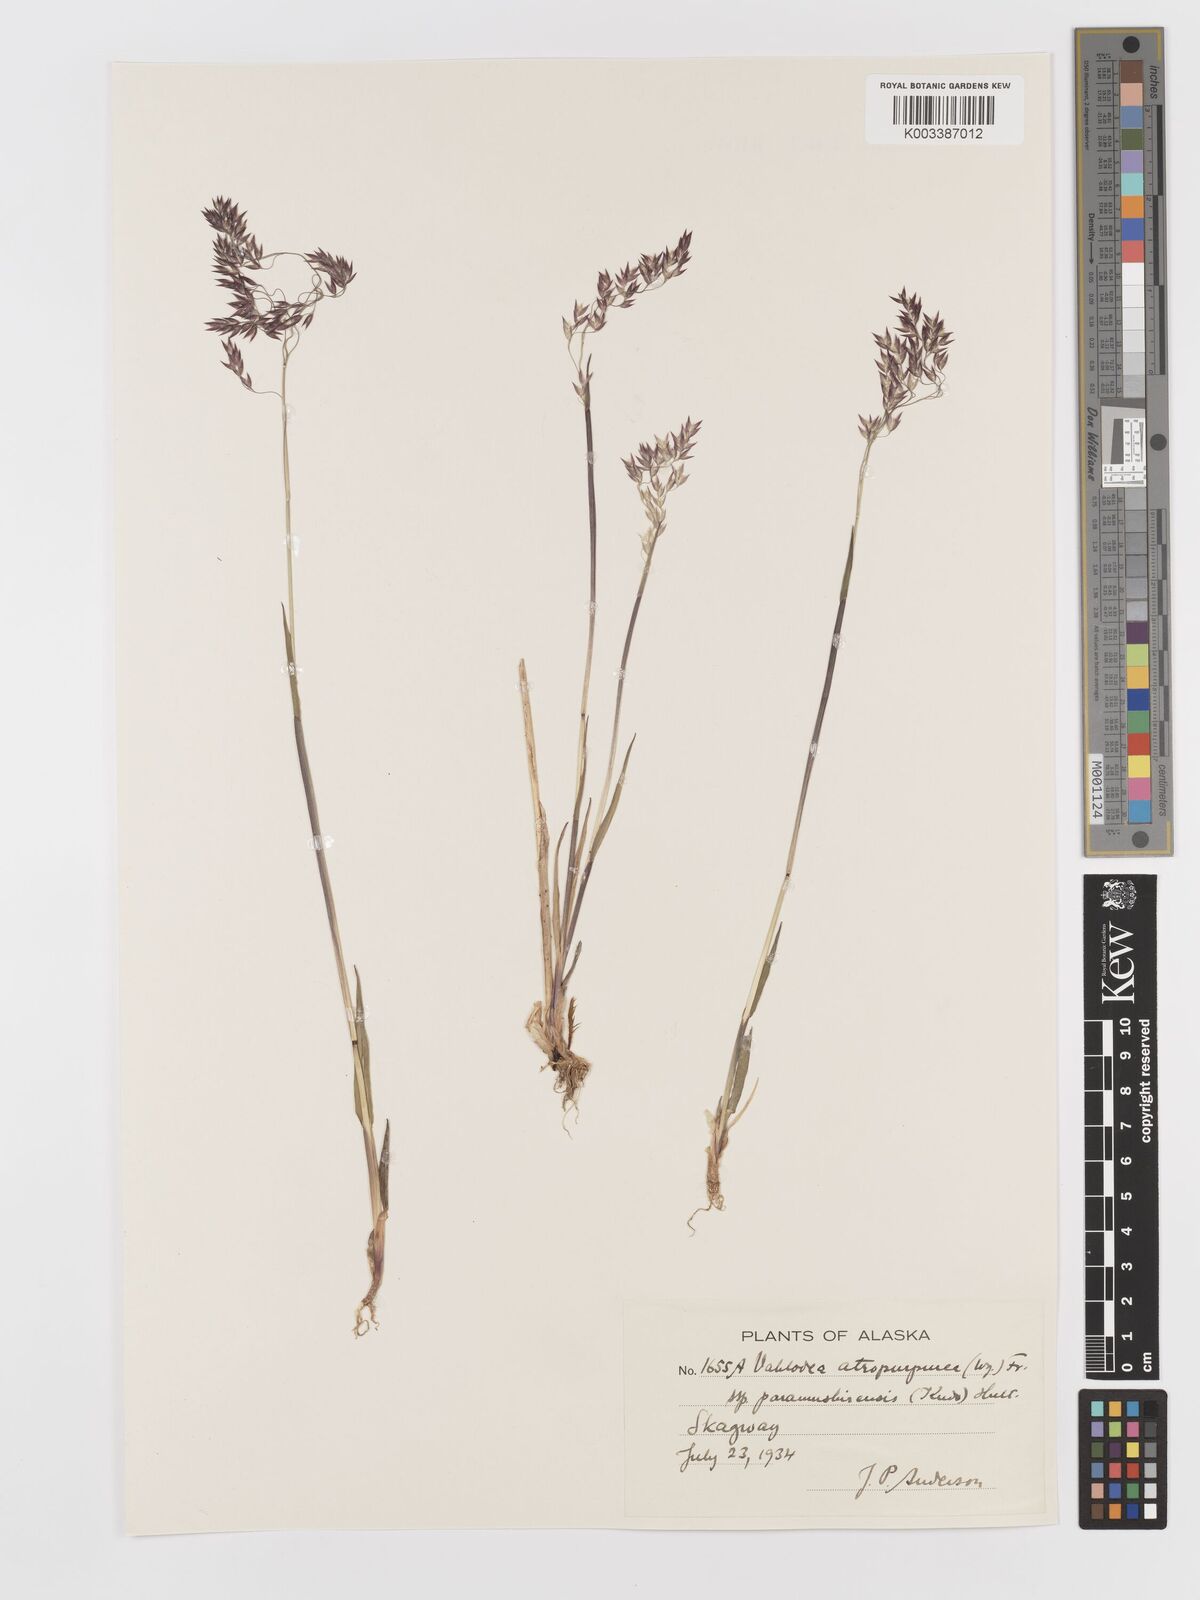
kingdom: Plantae
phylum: Tracheophyta
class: Liliopsida
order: Poales
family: Poaceae
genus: Vahlodea
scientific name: Vahlodea atropurpurea
